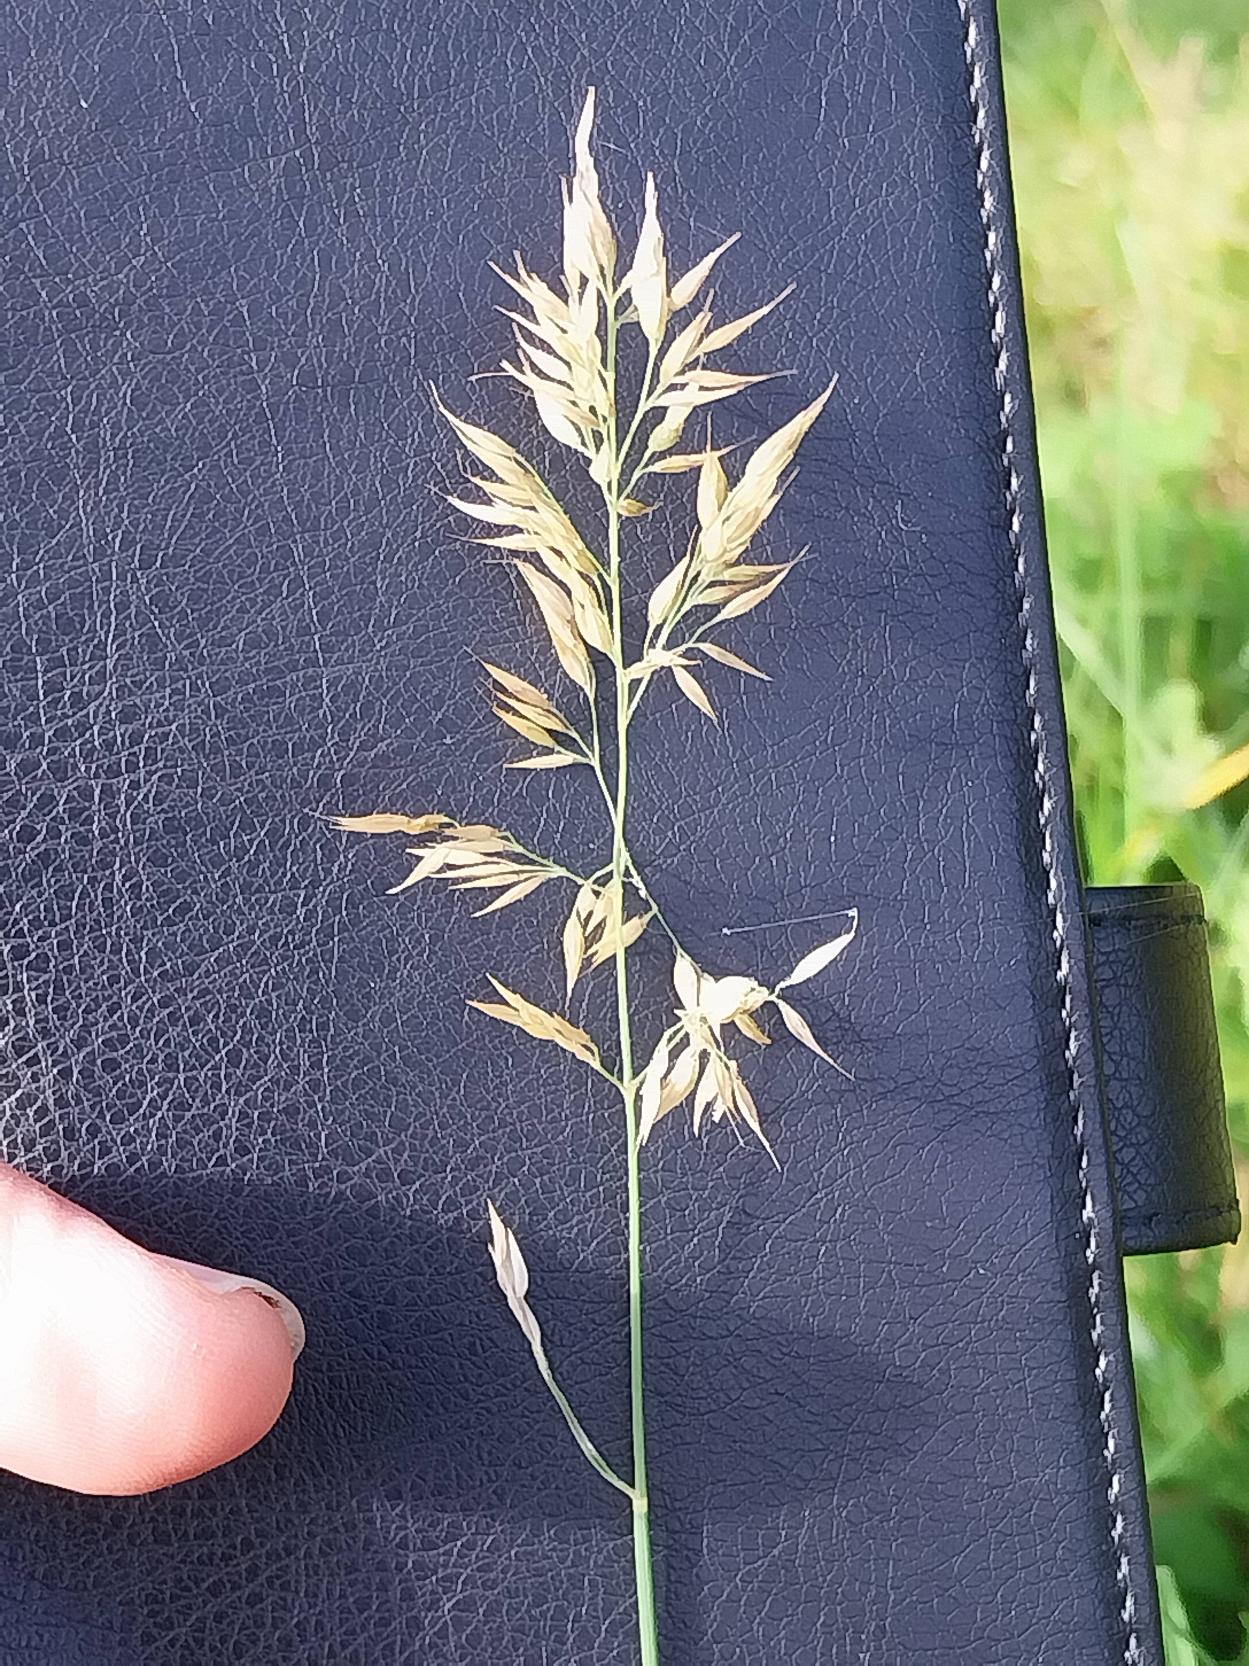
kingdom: Plantae
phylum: Tracheophyta
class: Liliopsida
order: Poales
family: Poaceae
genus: Holcus
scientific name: Holcus mollis
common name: Krybende hestegræs
